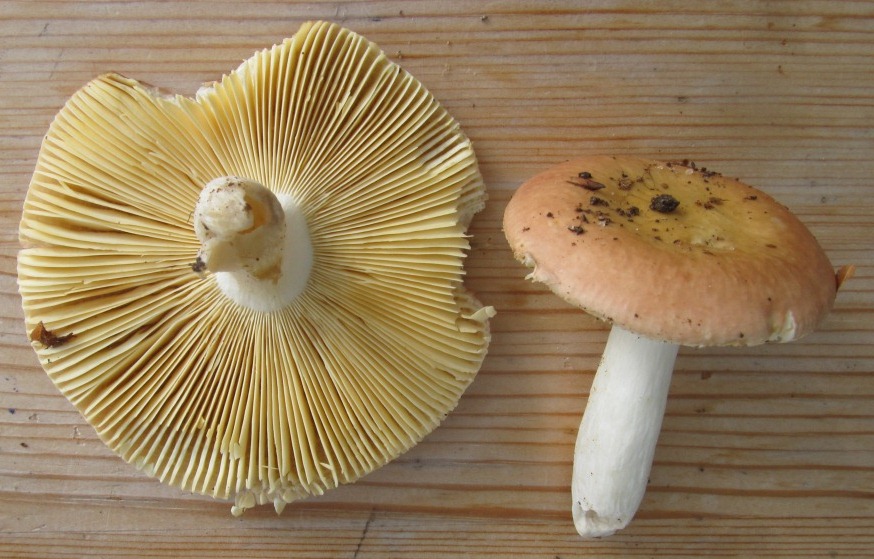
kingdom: Fungi
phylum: Basidiomycota
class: Agaricomycetes
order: Russulales
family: Russulaceae
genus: Russula
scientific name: Russula veternosa
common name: blødkødet skørhat
